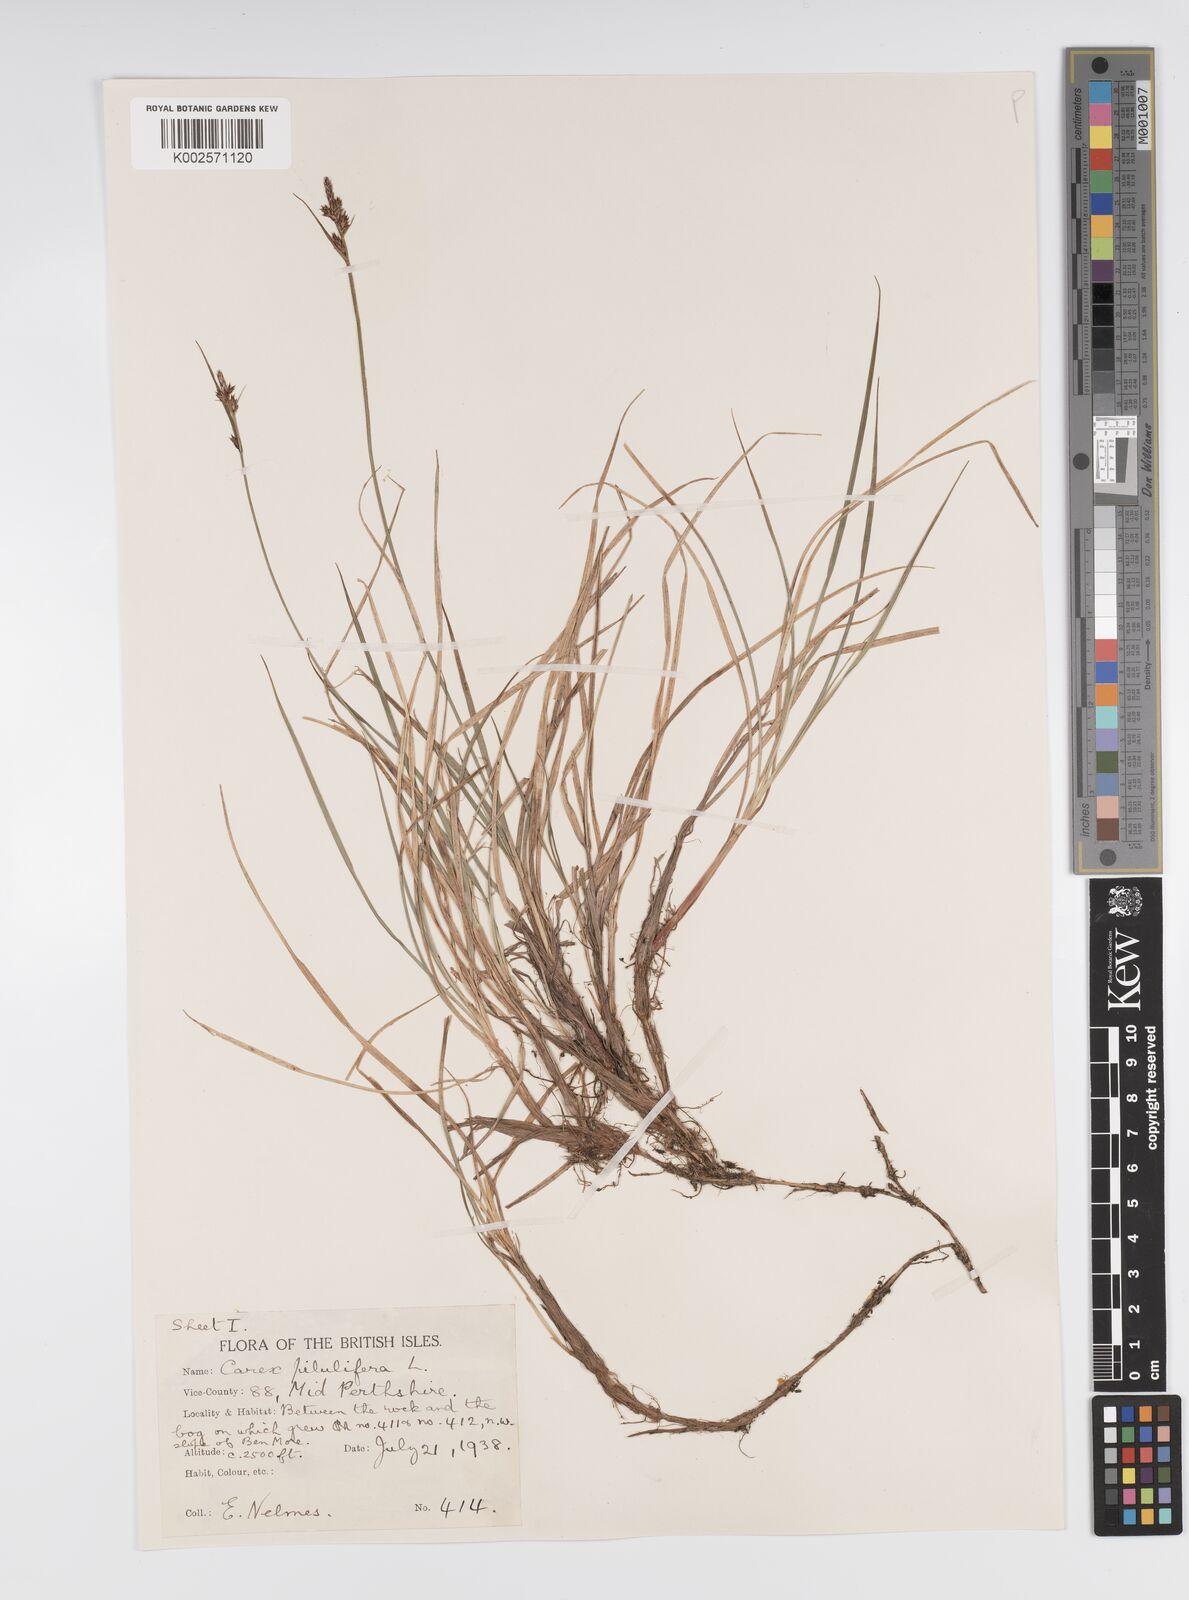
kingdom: Plantae
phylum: Tracheophyta
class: Liliopsida
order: Poales
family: Cyperaceae
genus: Carex
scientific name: Carex pilulifera
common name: Pill sedge
